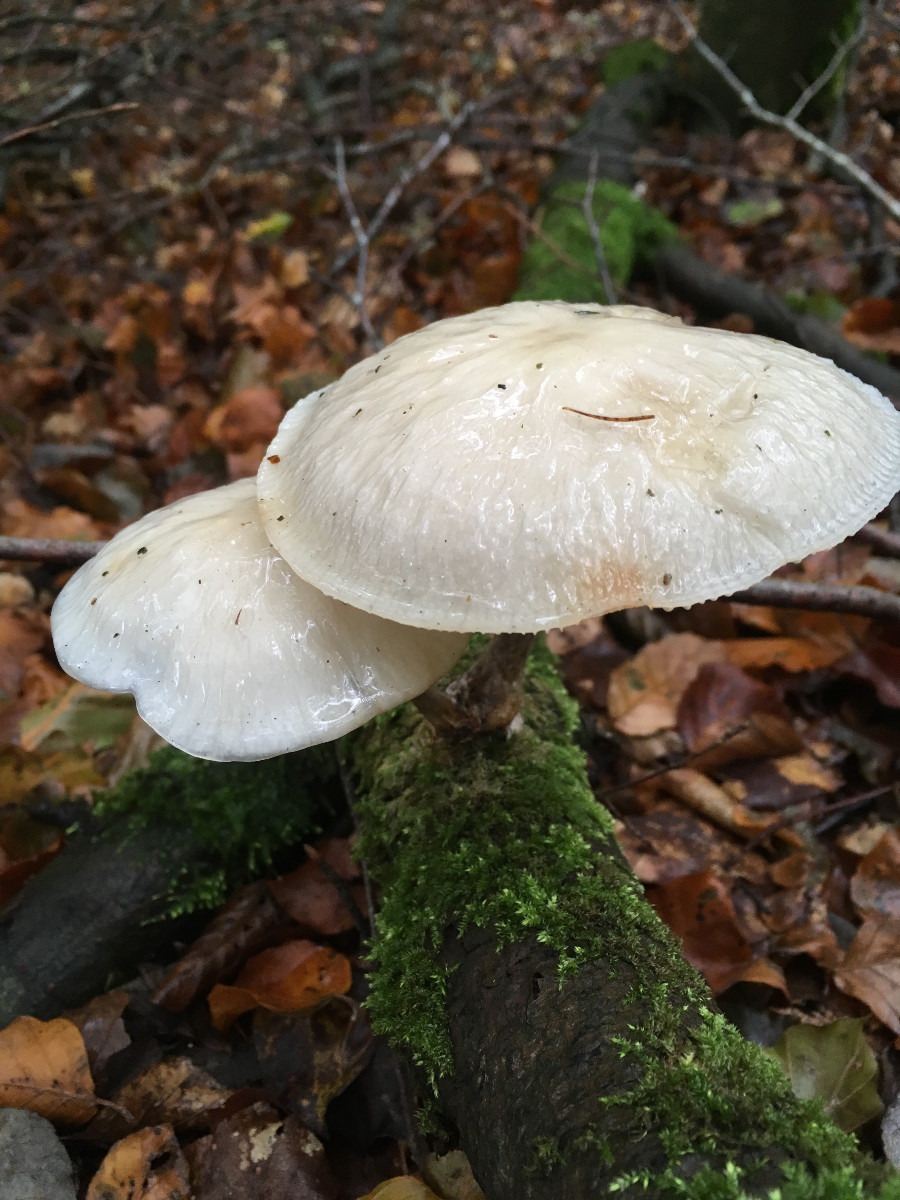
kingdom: Fungi
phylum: Basidiomycota
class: Agaricomycetes
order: Agaricales
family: Physalacriaceae
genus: Mucidula
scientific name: Mucidula mucida
